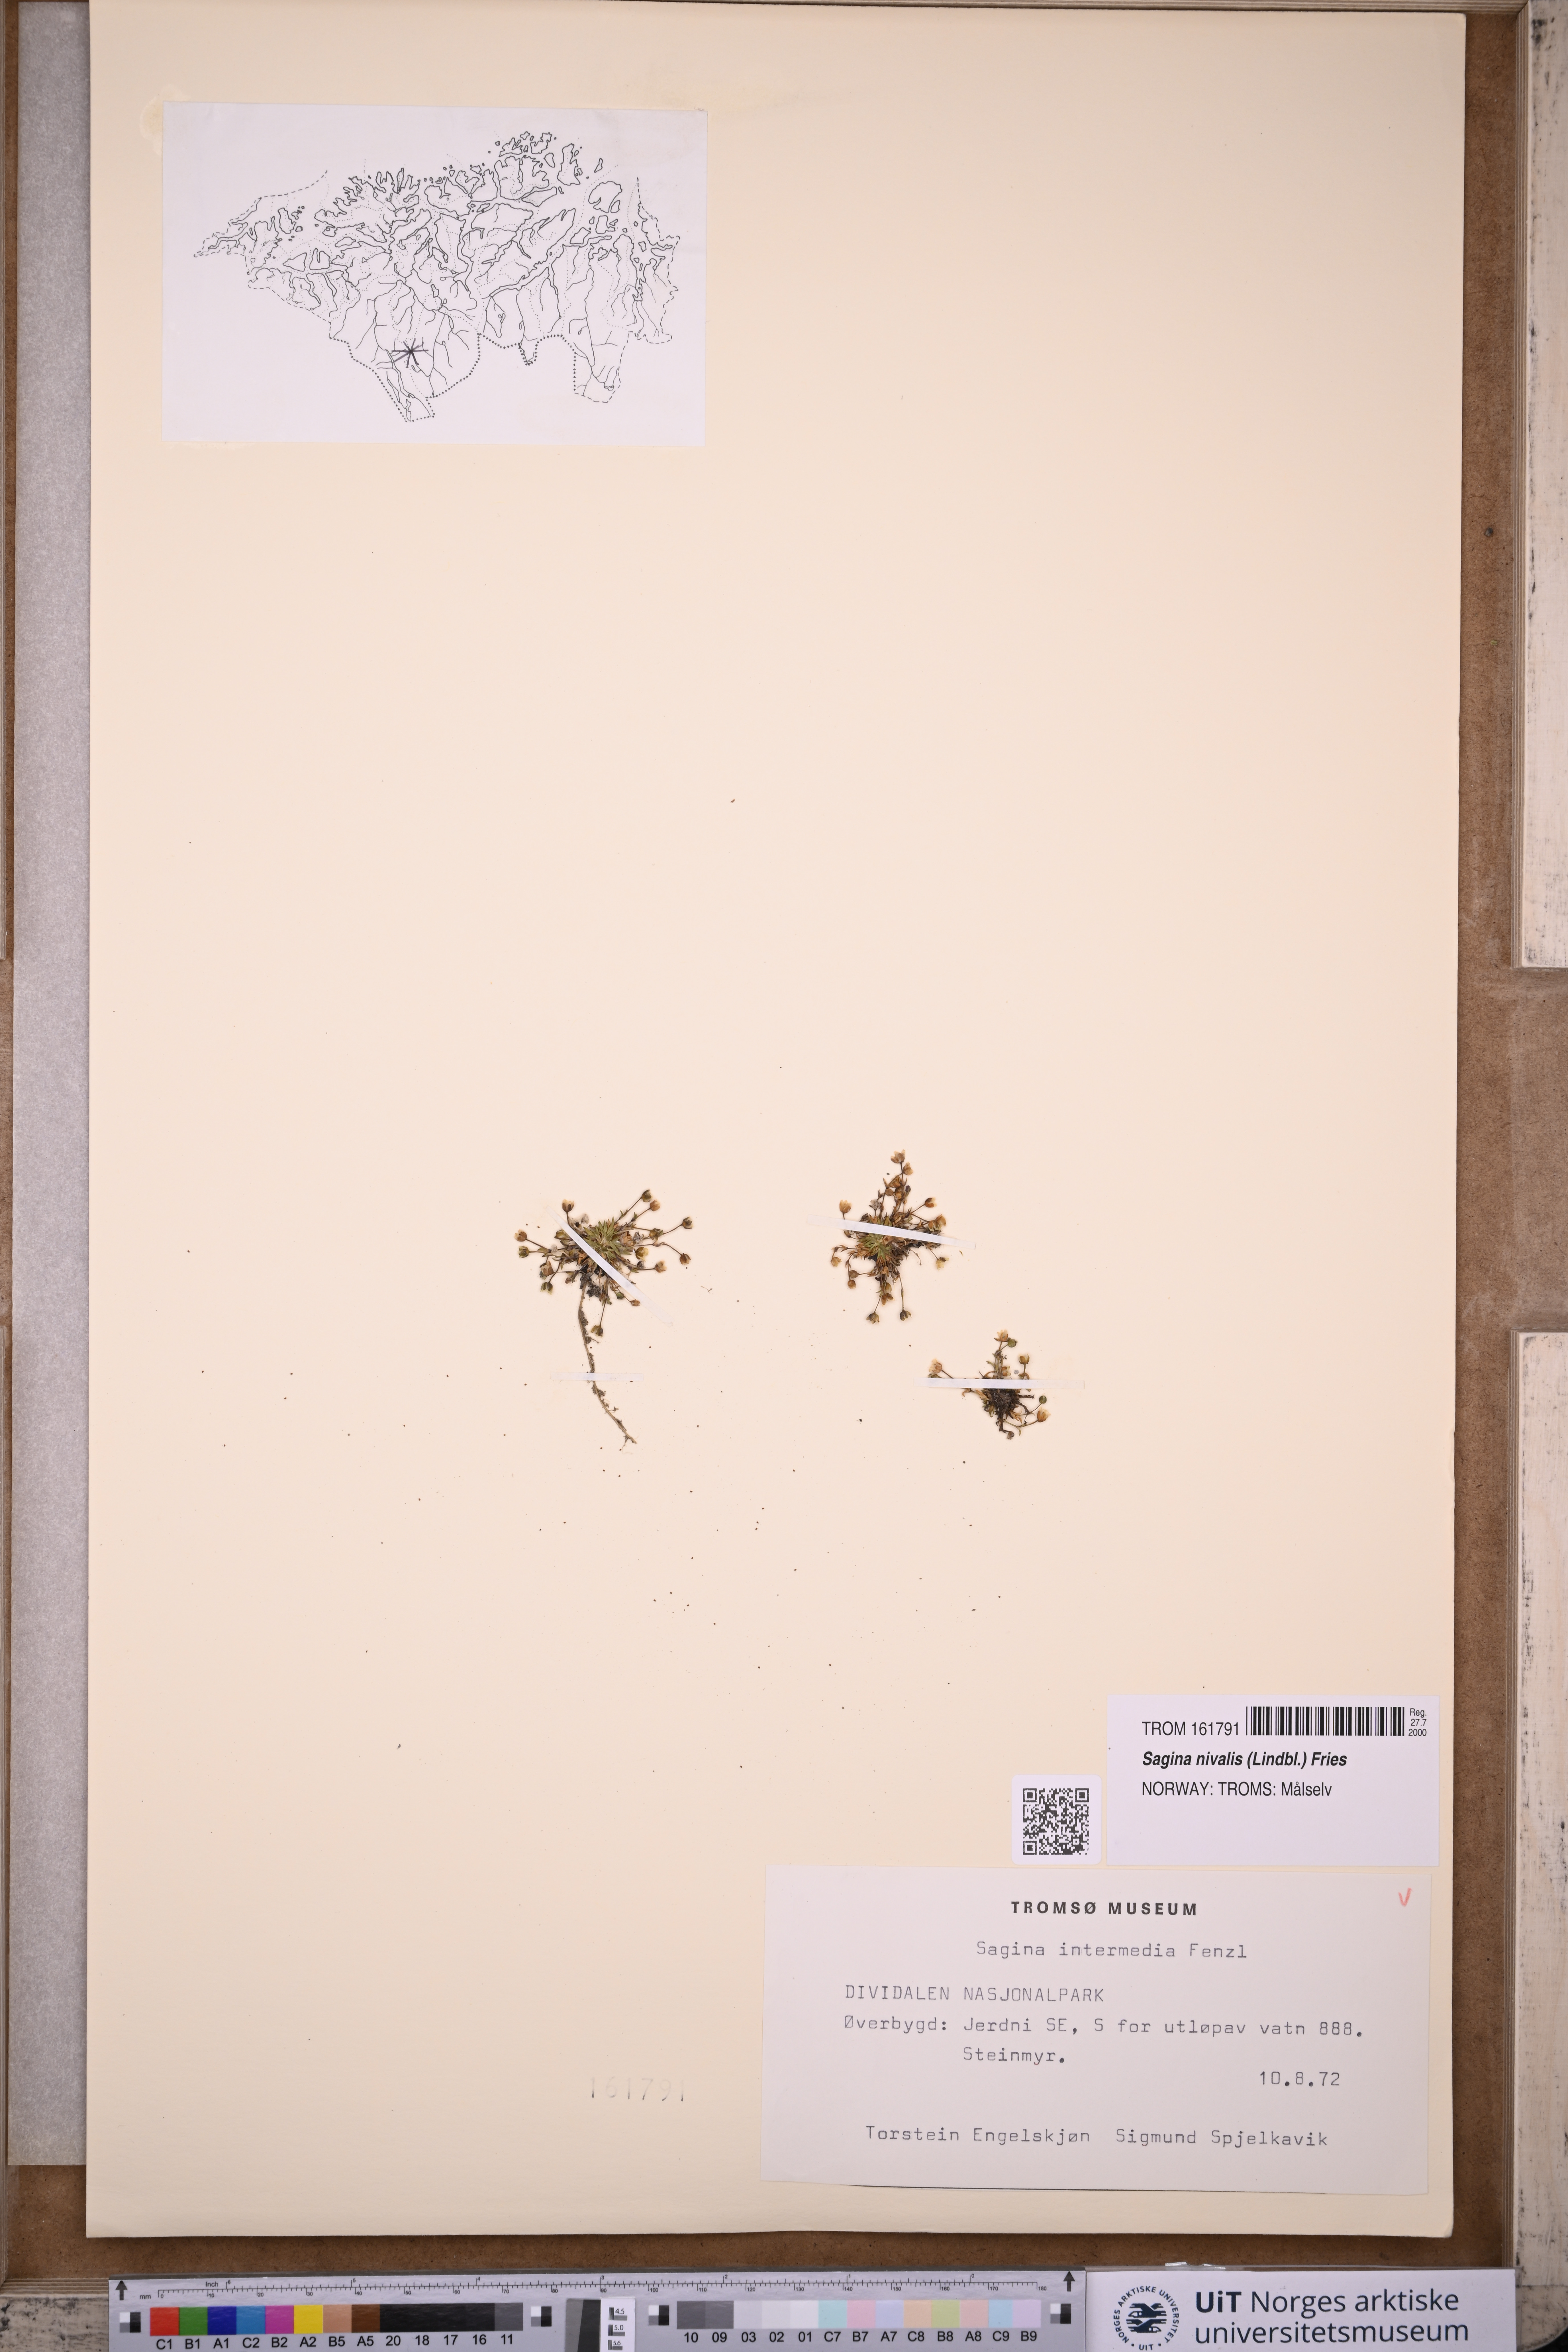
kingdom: Plantae
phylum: Tracheophyta
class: Magnoliopsida
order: Caryophyllales
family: Caryophyllaceae
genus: Sagina
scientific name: Sagina nivalis
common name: Snow pearlwort
